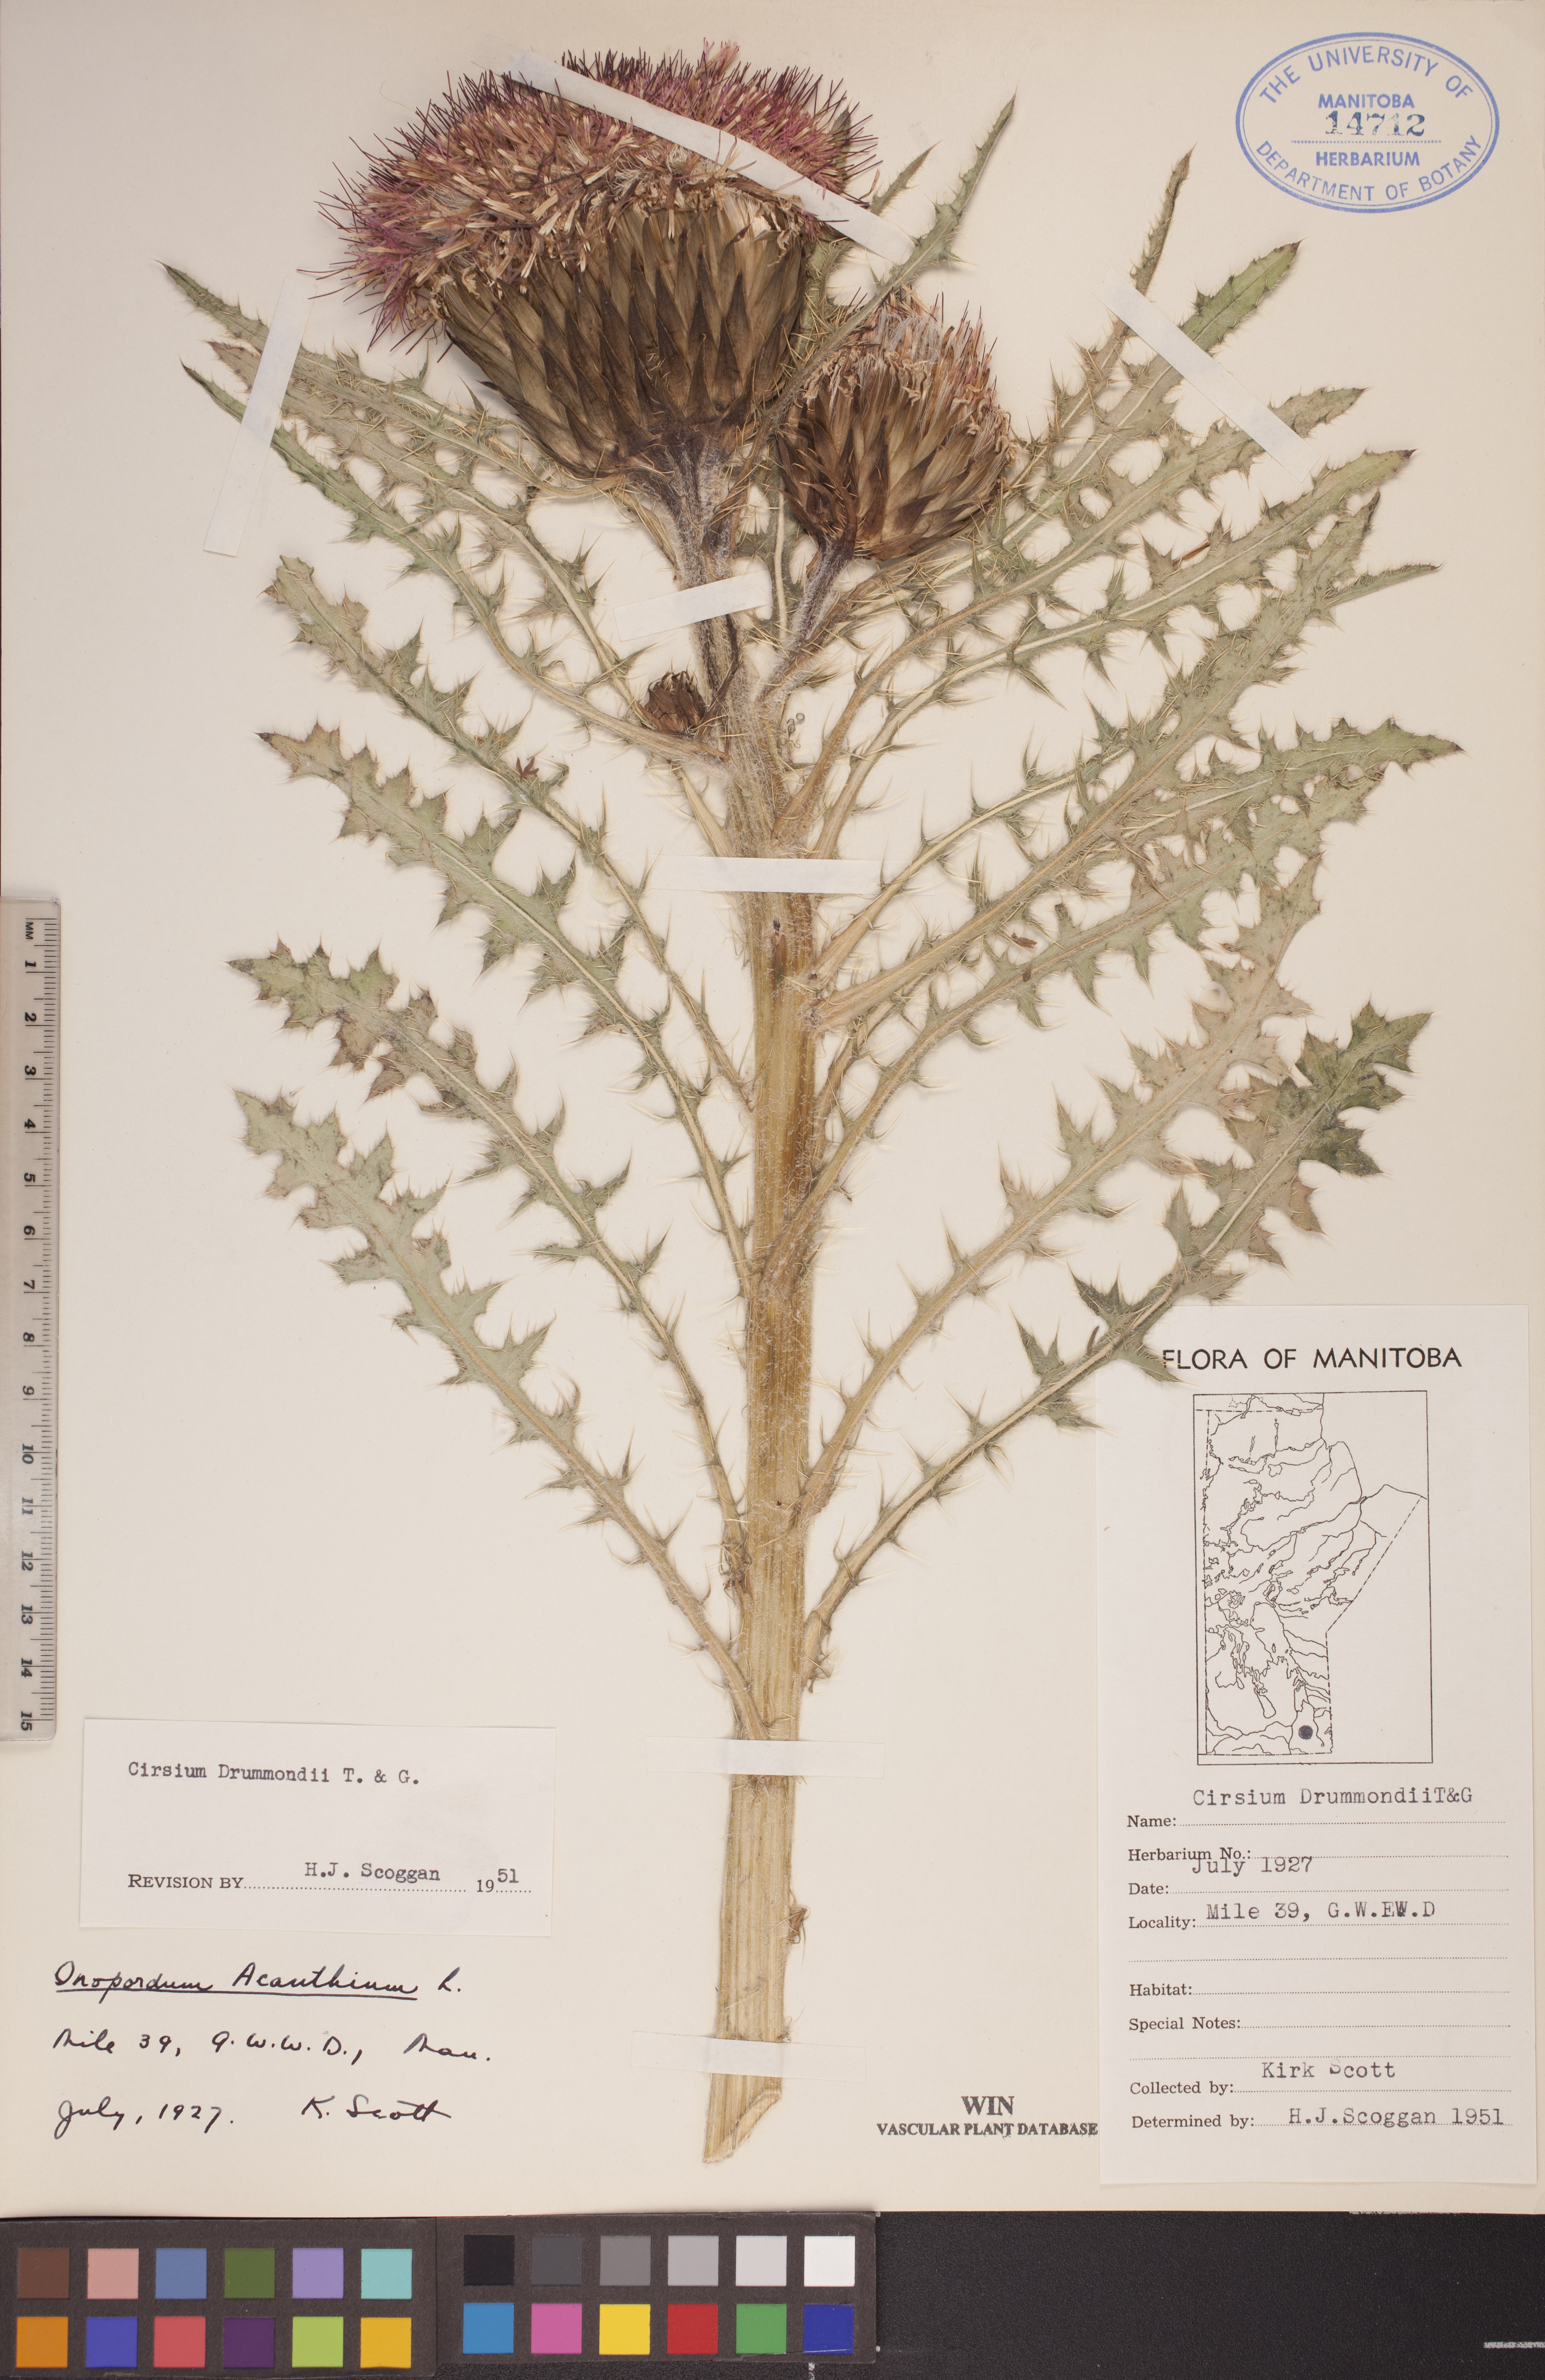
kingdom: Plantae
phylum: Tracheophyta
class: Magnoliopsida
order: Asterales
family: Asteraceae
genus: Cirsium
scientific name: Cirsium drummondii
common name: Drummond's thistle
